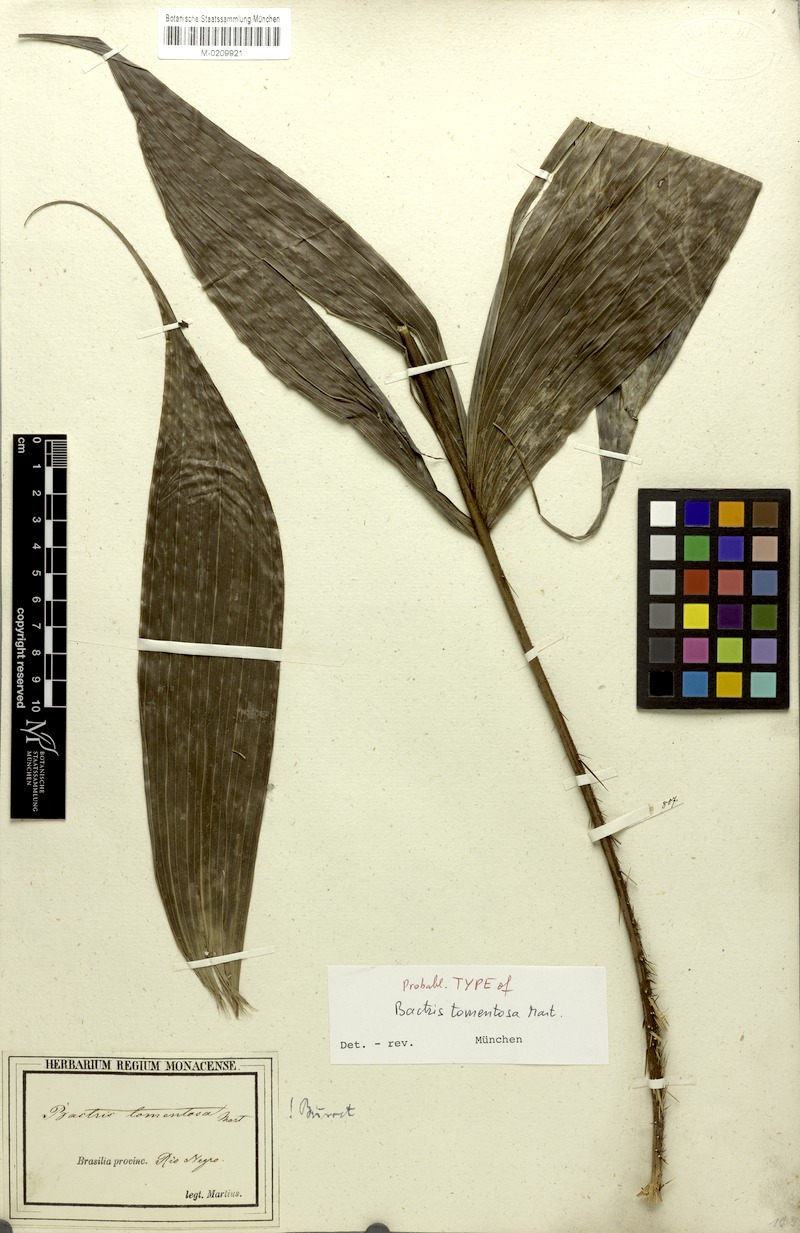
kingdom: Plantae
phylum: Tracheophyta
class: Liliopsida
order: Arecales
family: Arecaceae
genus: Bactris
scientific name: Bactris tomentosa
